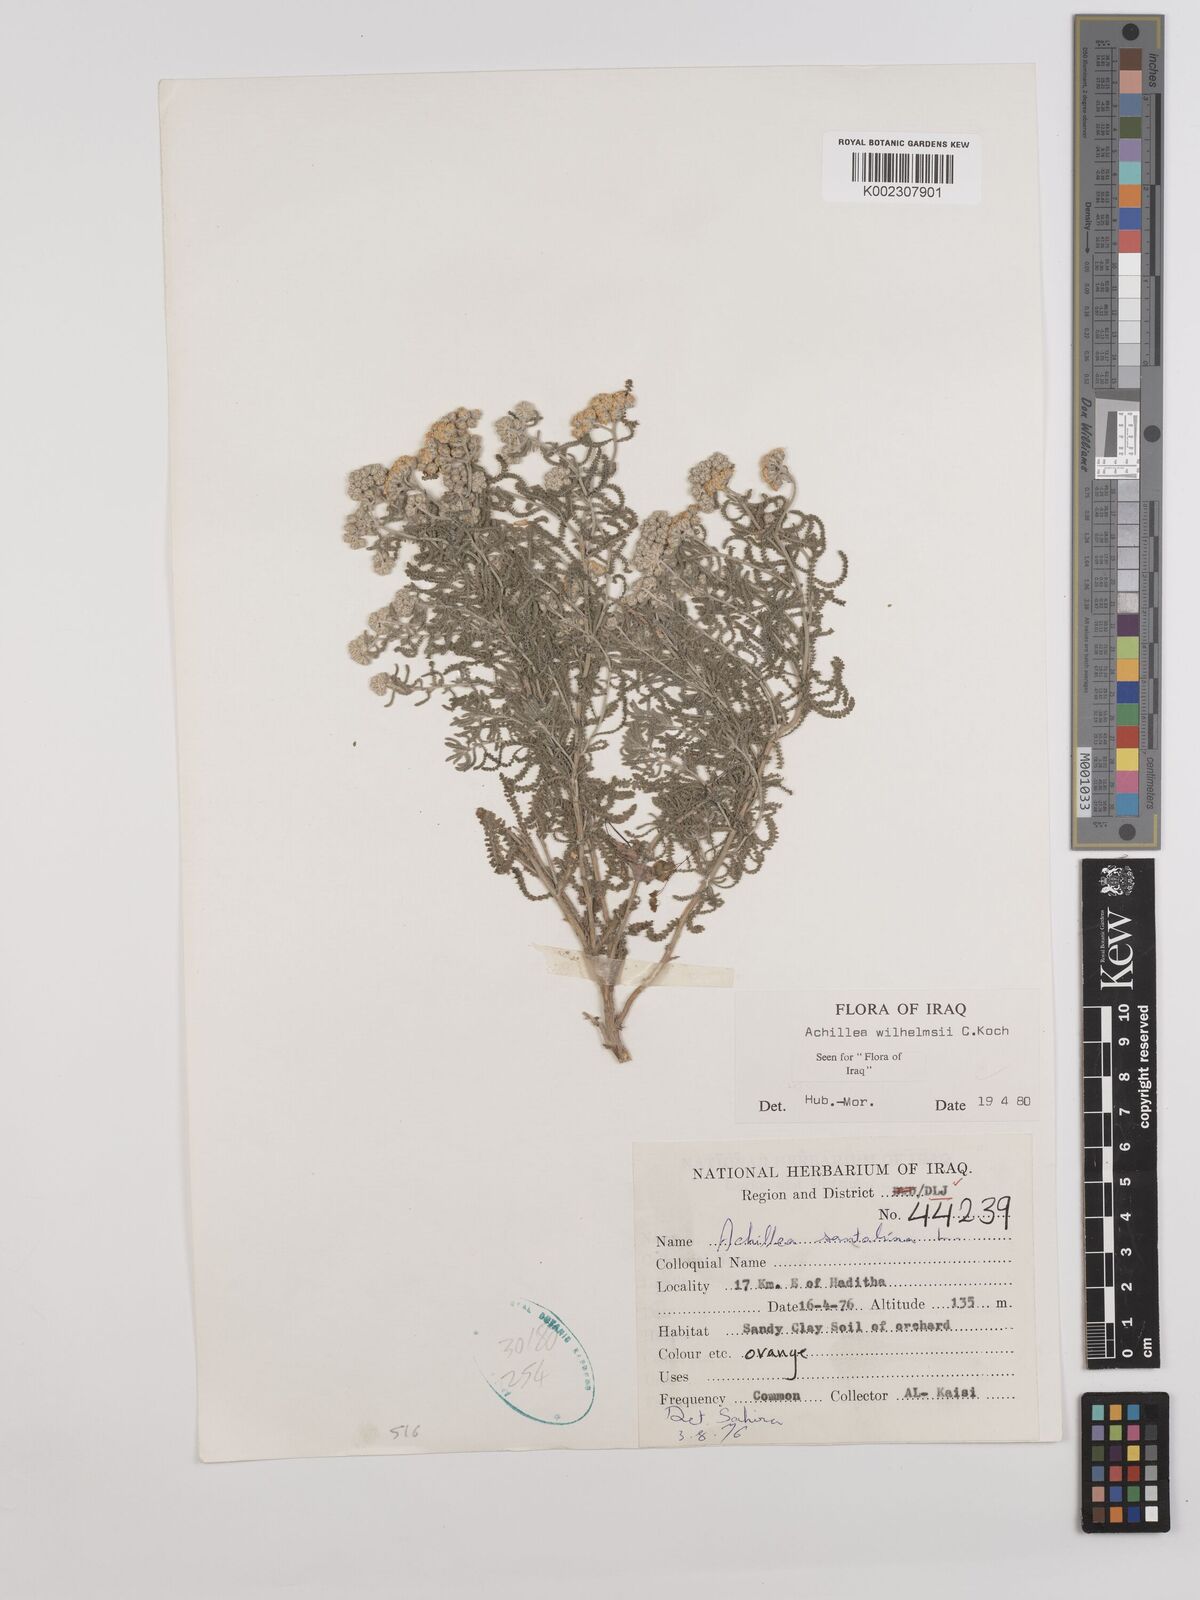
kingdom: Plantae
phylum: Tracheophyta
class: Magnoliopsida
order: Asterales
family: Asteraceae
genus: Achillea
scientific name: Achillea wilhelmsii
